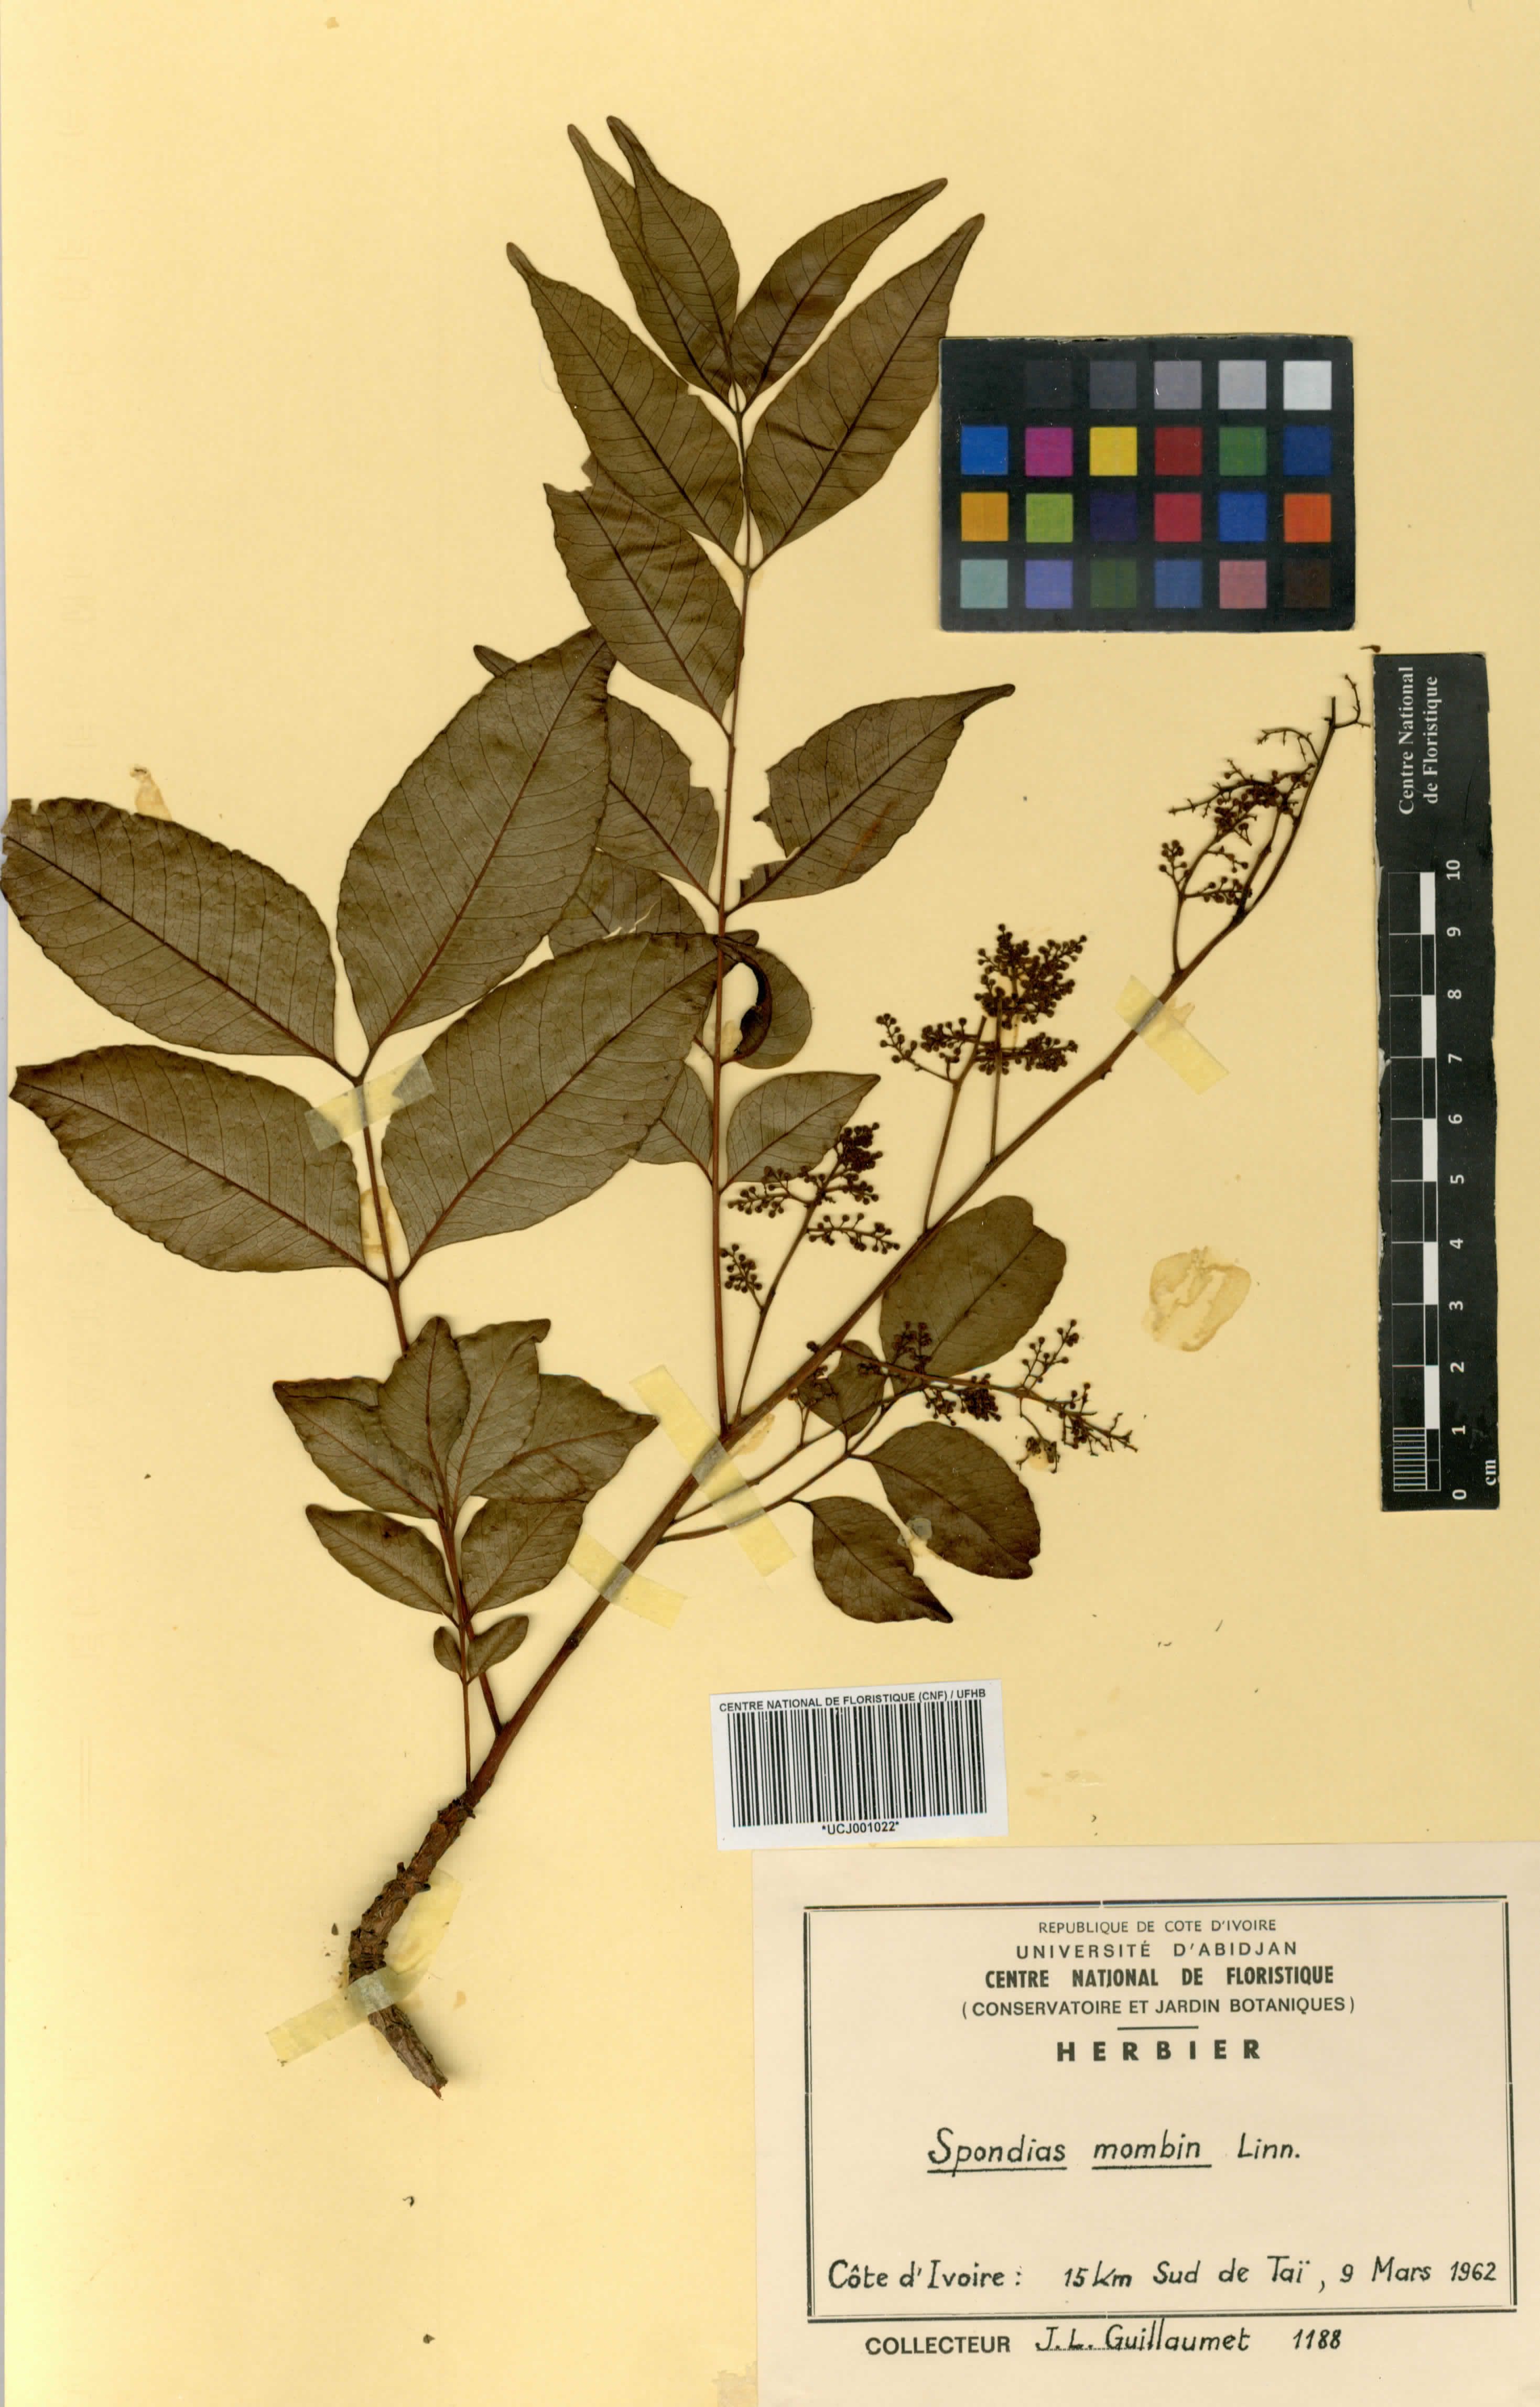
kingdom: Plantae
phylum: Tracheophyta
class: Magnoliopsida
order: Sapindales
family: Anacardiaceae
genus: Spondias
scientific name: Spondias mombin
